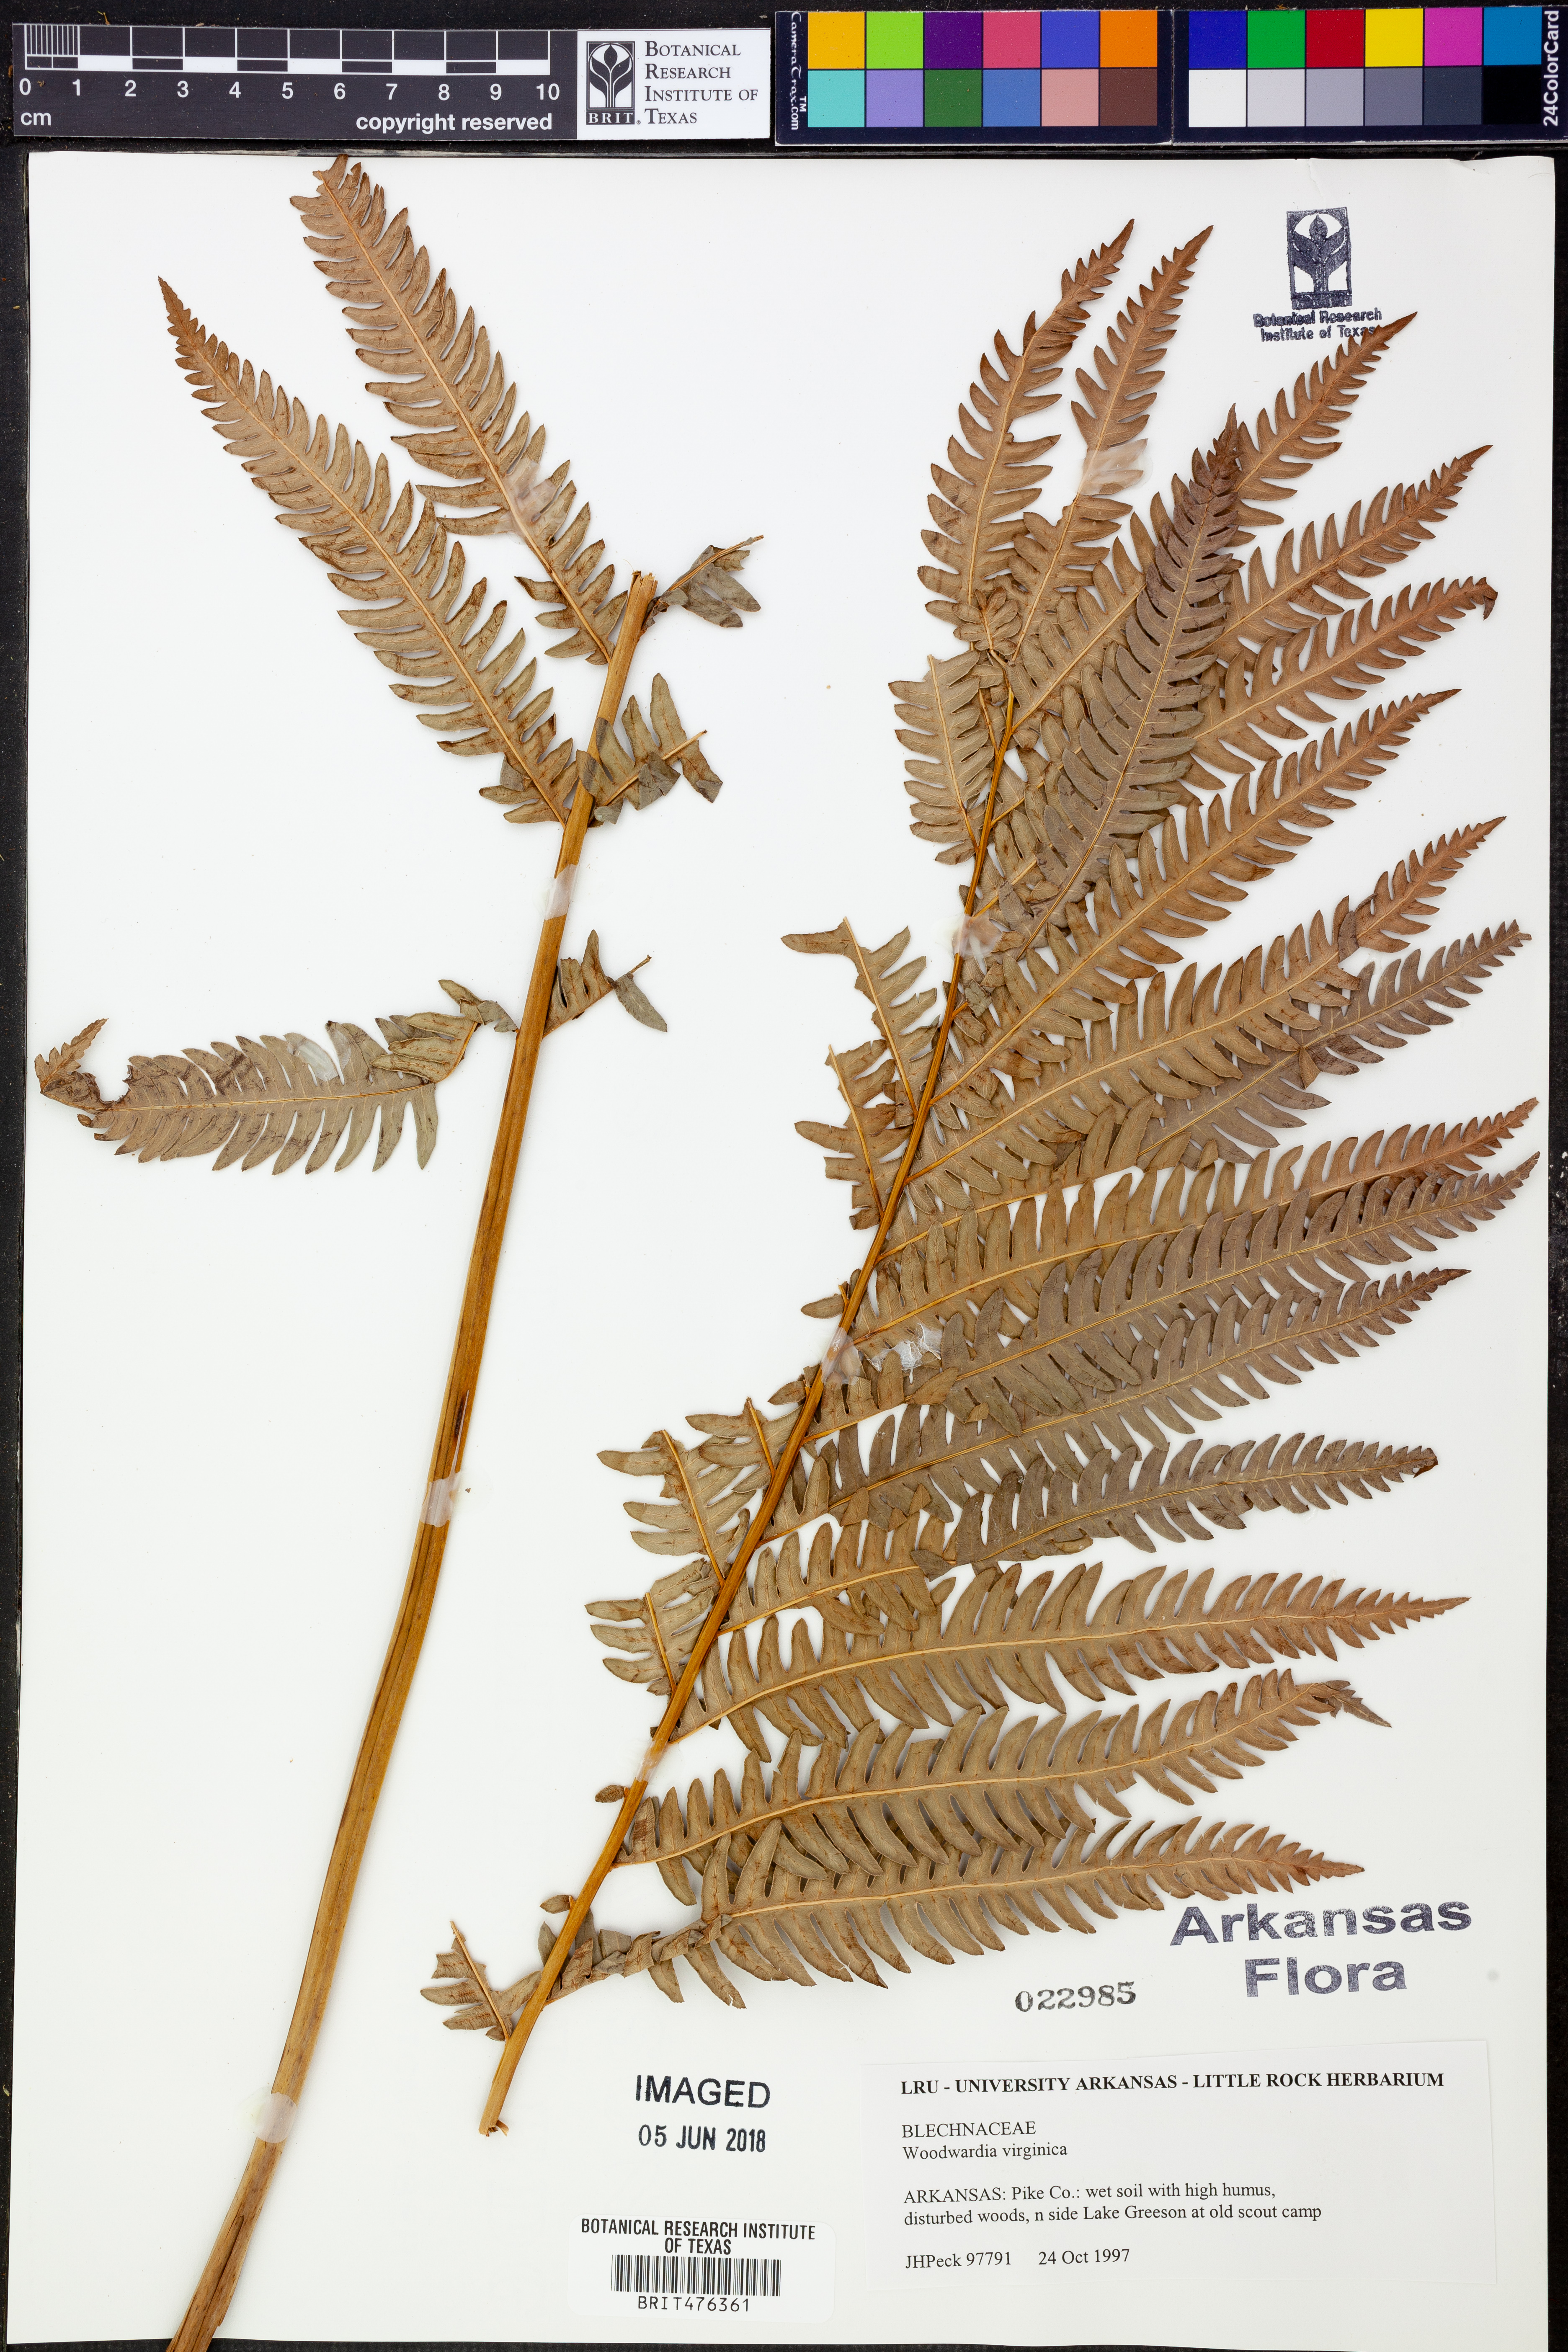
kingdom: Plantae
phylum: Tracheophyta
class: Polypodiopsida
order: Polypodiales
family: Blechnaceae
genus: Anchistea
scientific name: Anchistea virginica
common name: Virginia chain fern
